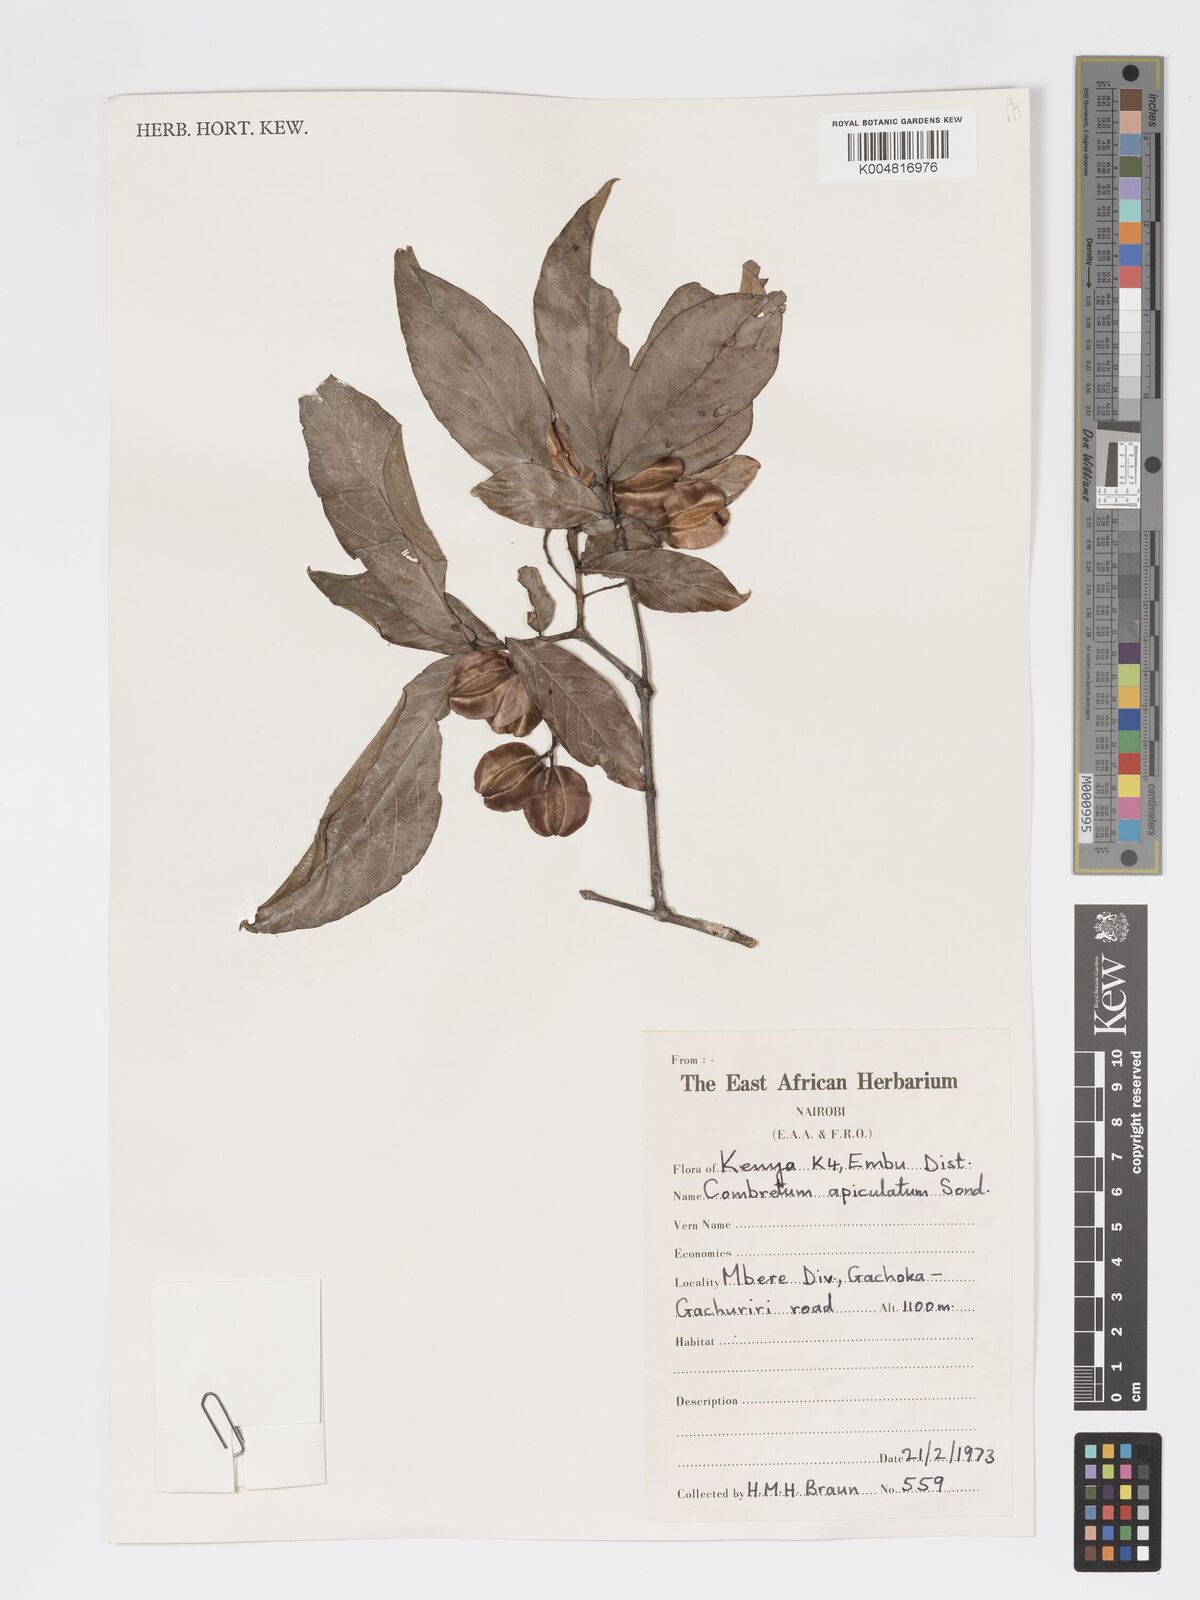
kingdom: Plantae
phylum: Tracheophyta
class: Magnoliopsida
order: Myrtales
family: Combretaceae
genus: Combretum
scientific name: Combretum apiculatum
